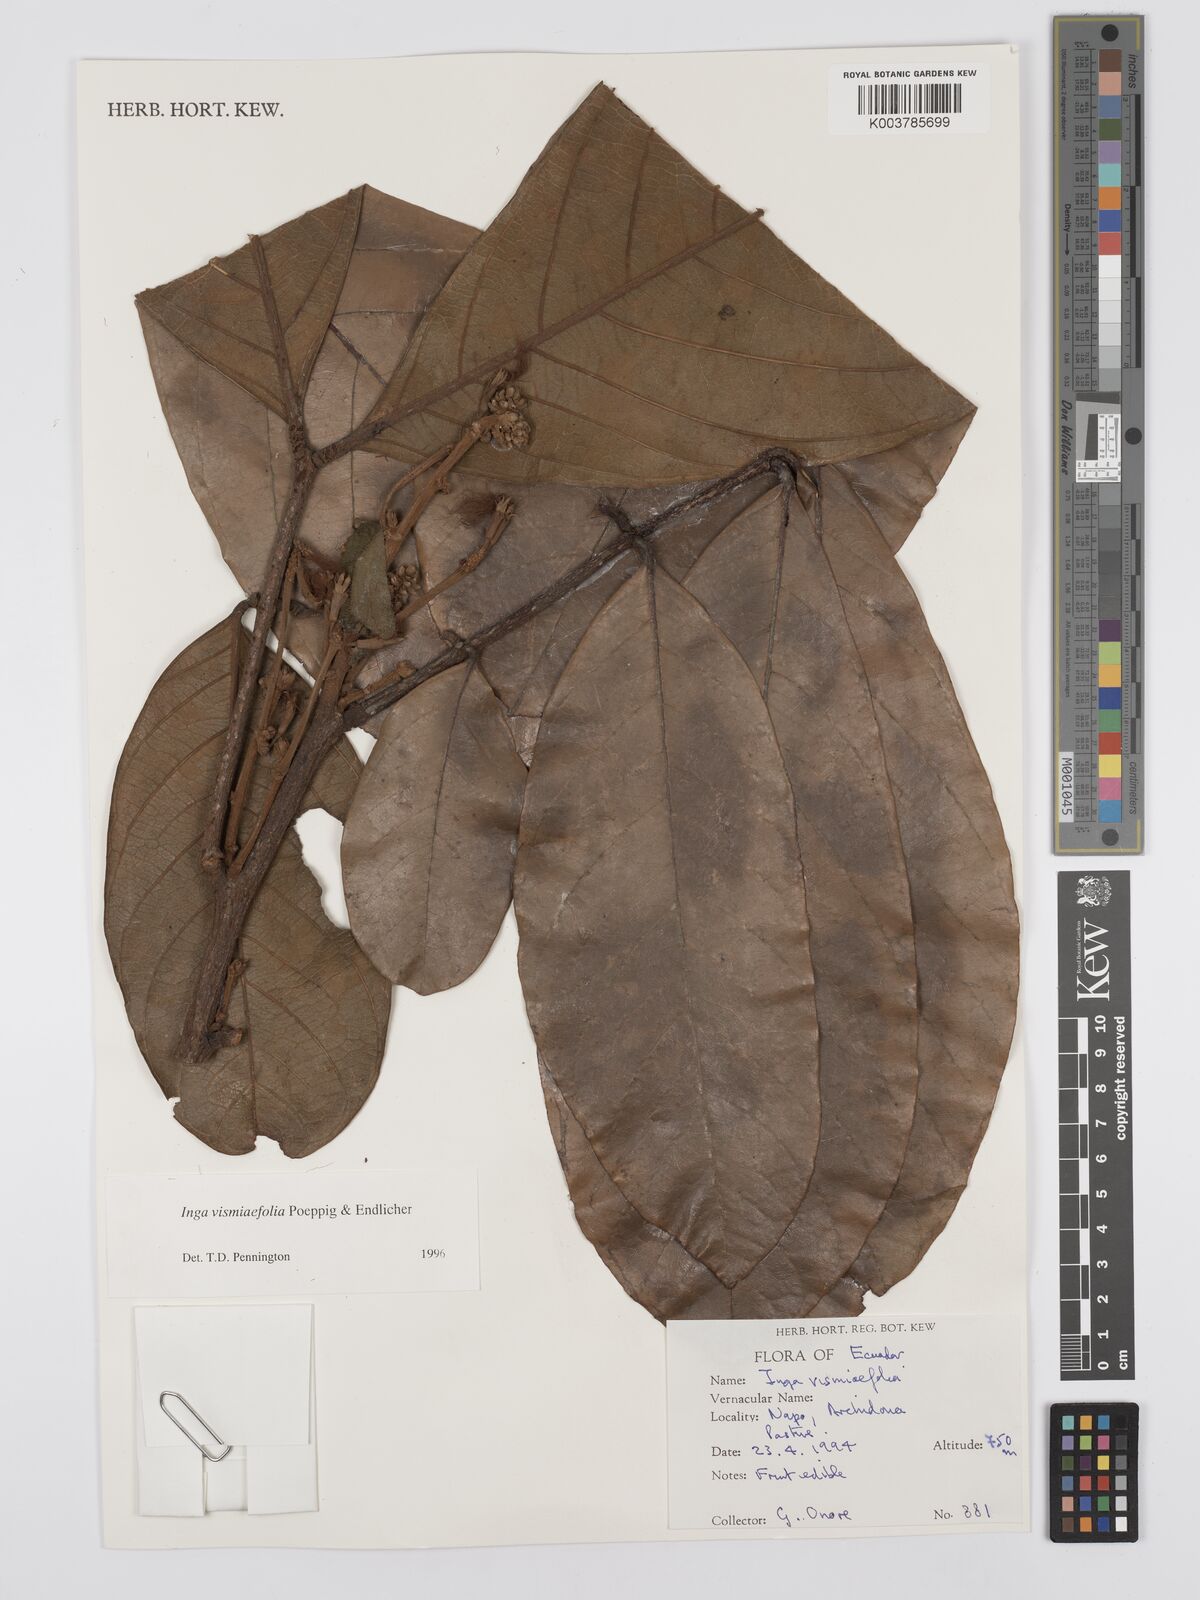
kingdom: Plantae
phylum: Tracheophyta
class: Magnoliopsida
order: Fabales
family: Fabaceae
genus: Inga
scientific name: Inga vismiifolia
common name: Howler monkey inga
